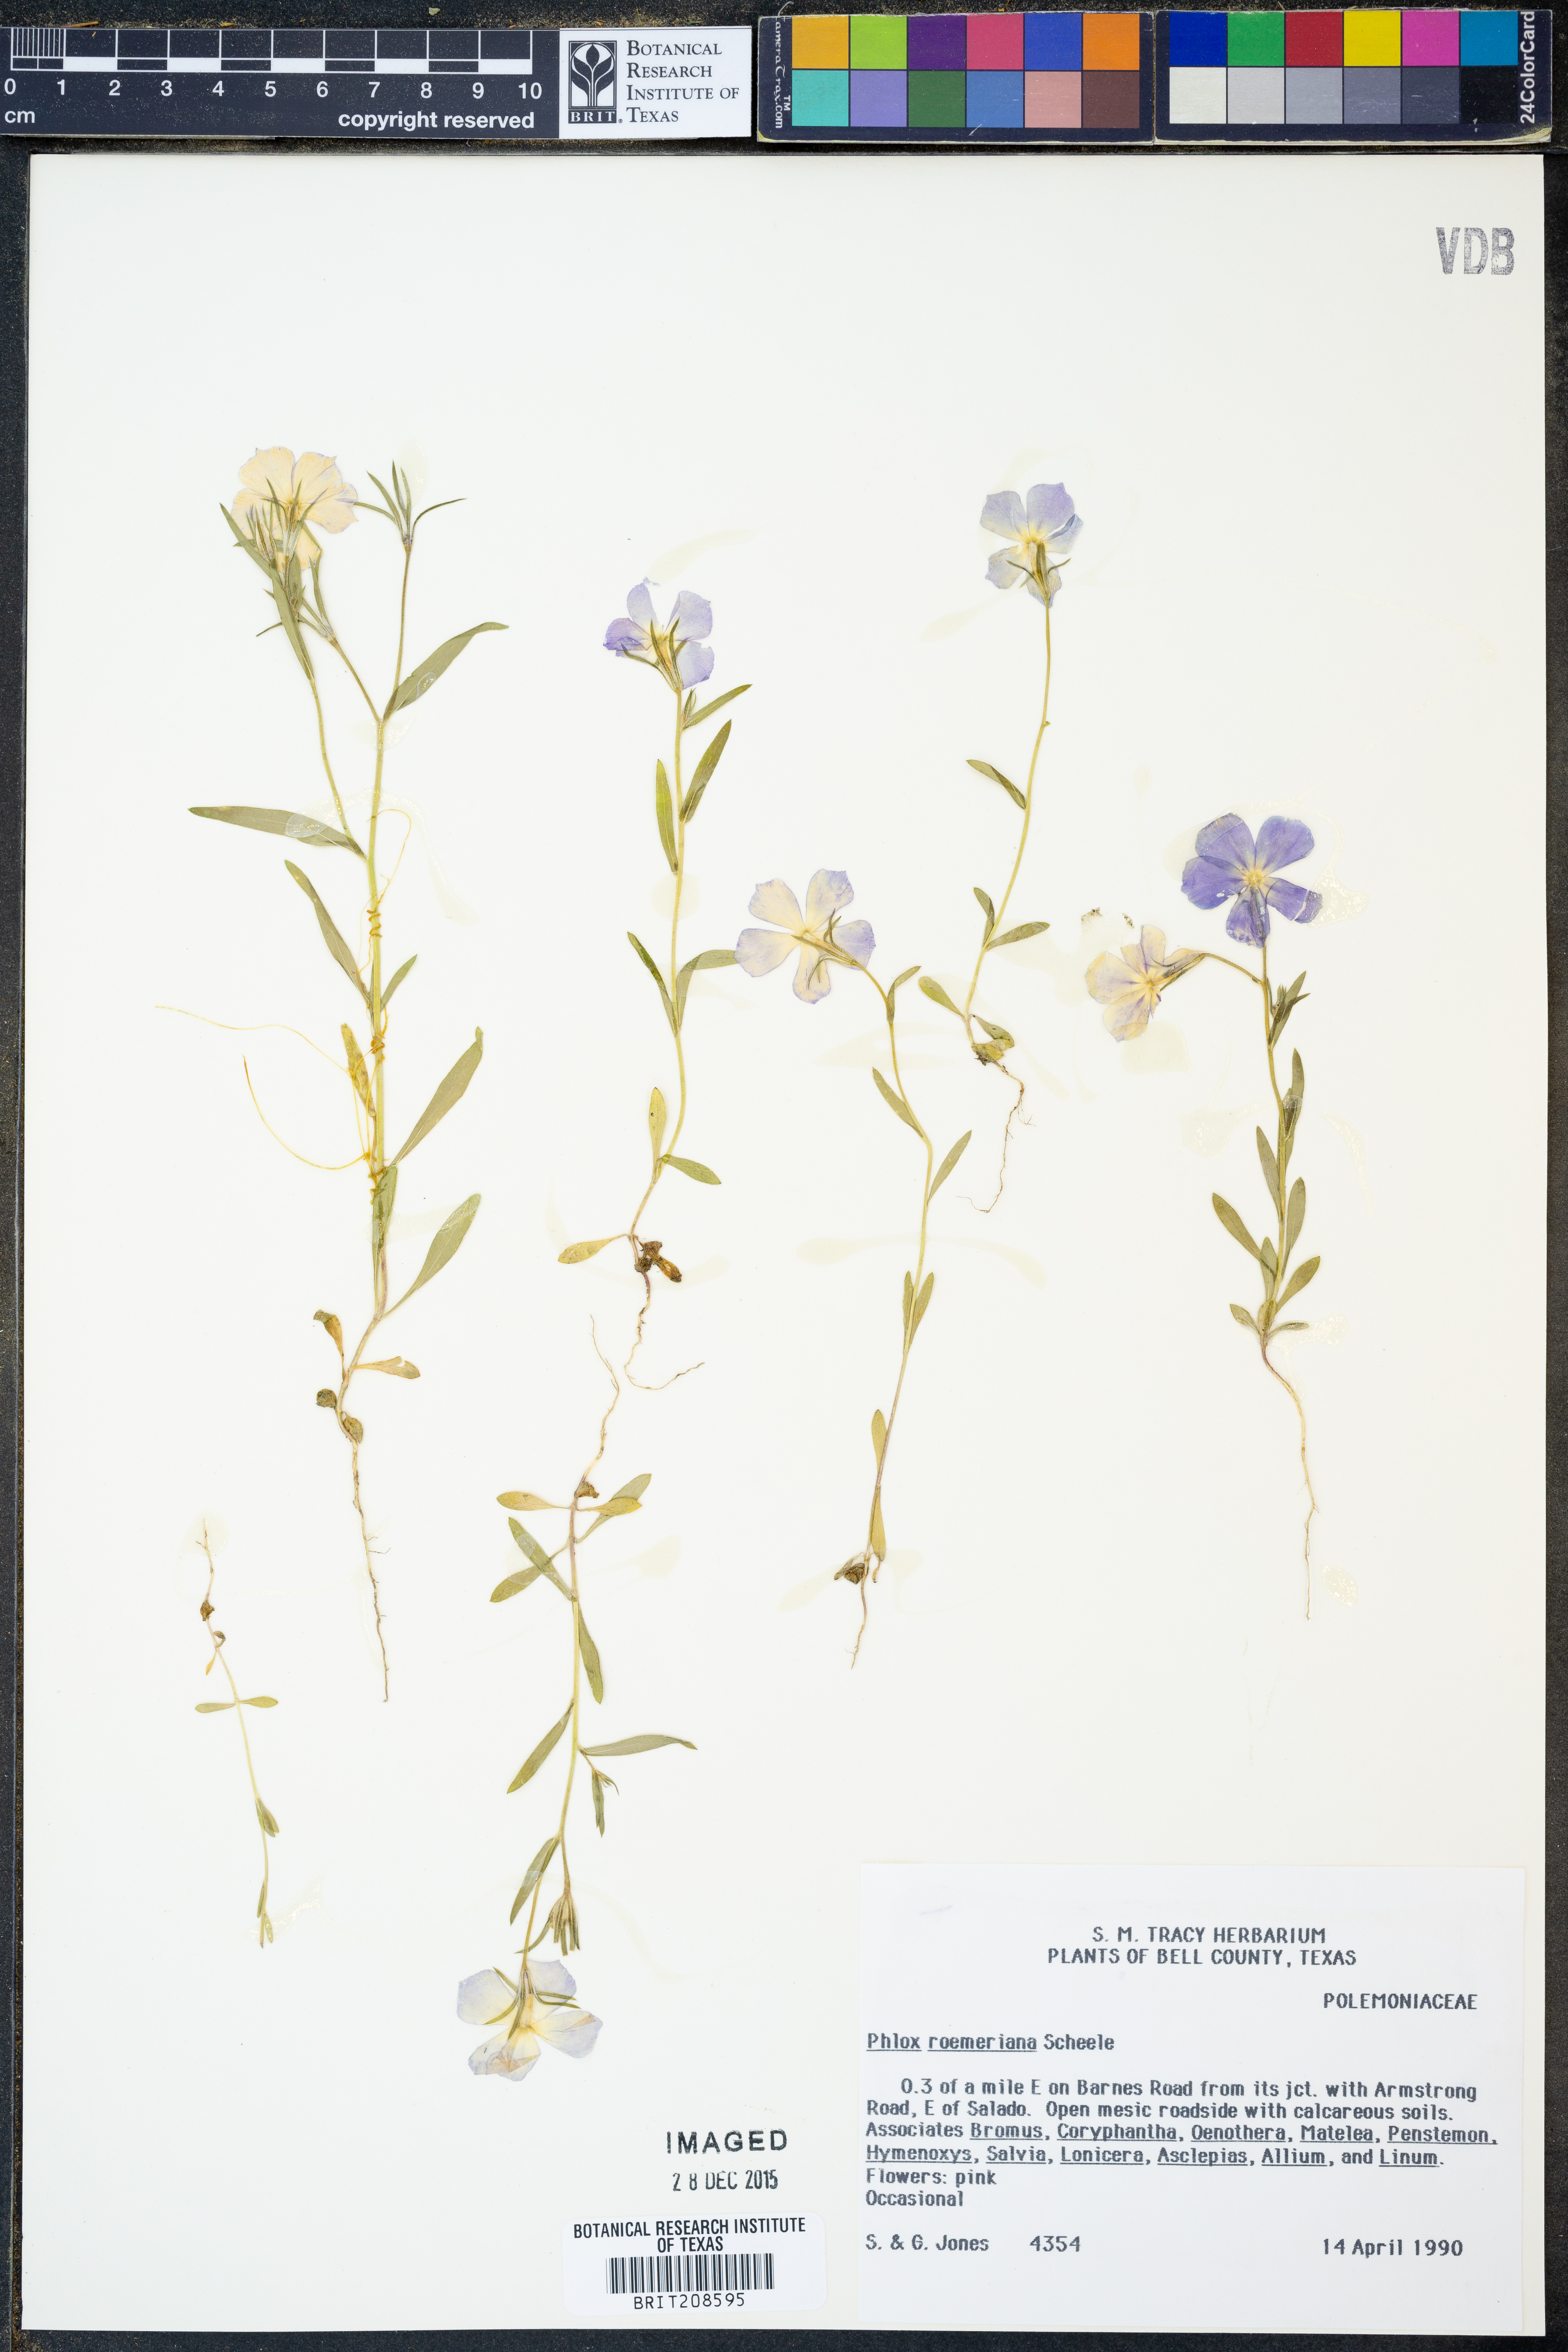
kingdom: Plantae
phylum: Tracheophyta
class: Magnoliopsida
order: Ericales
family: Polemoniaceae
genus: Phlox
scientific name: Phlox roemeriana
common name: Roemer's phlox
